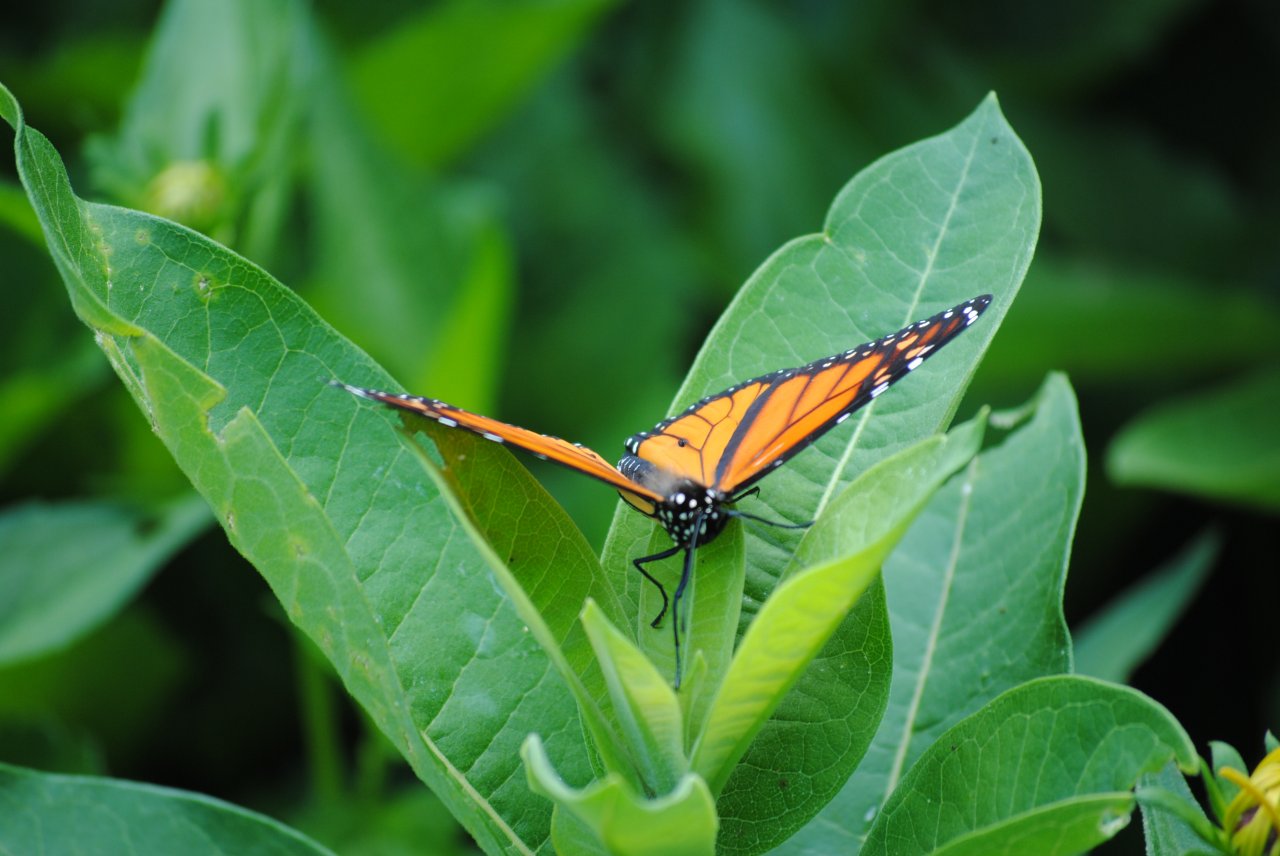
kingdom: Animalia
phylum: Arthropoda
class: Insecta
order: Lepidoptera
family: Nymphalidae
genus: Danaus
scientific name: Danaus plexippus
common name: Monarch
